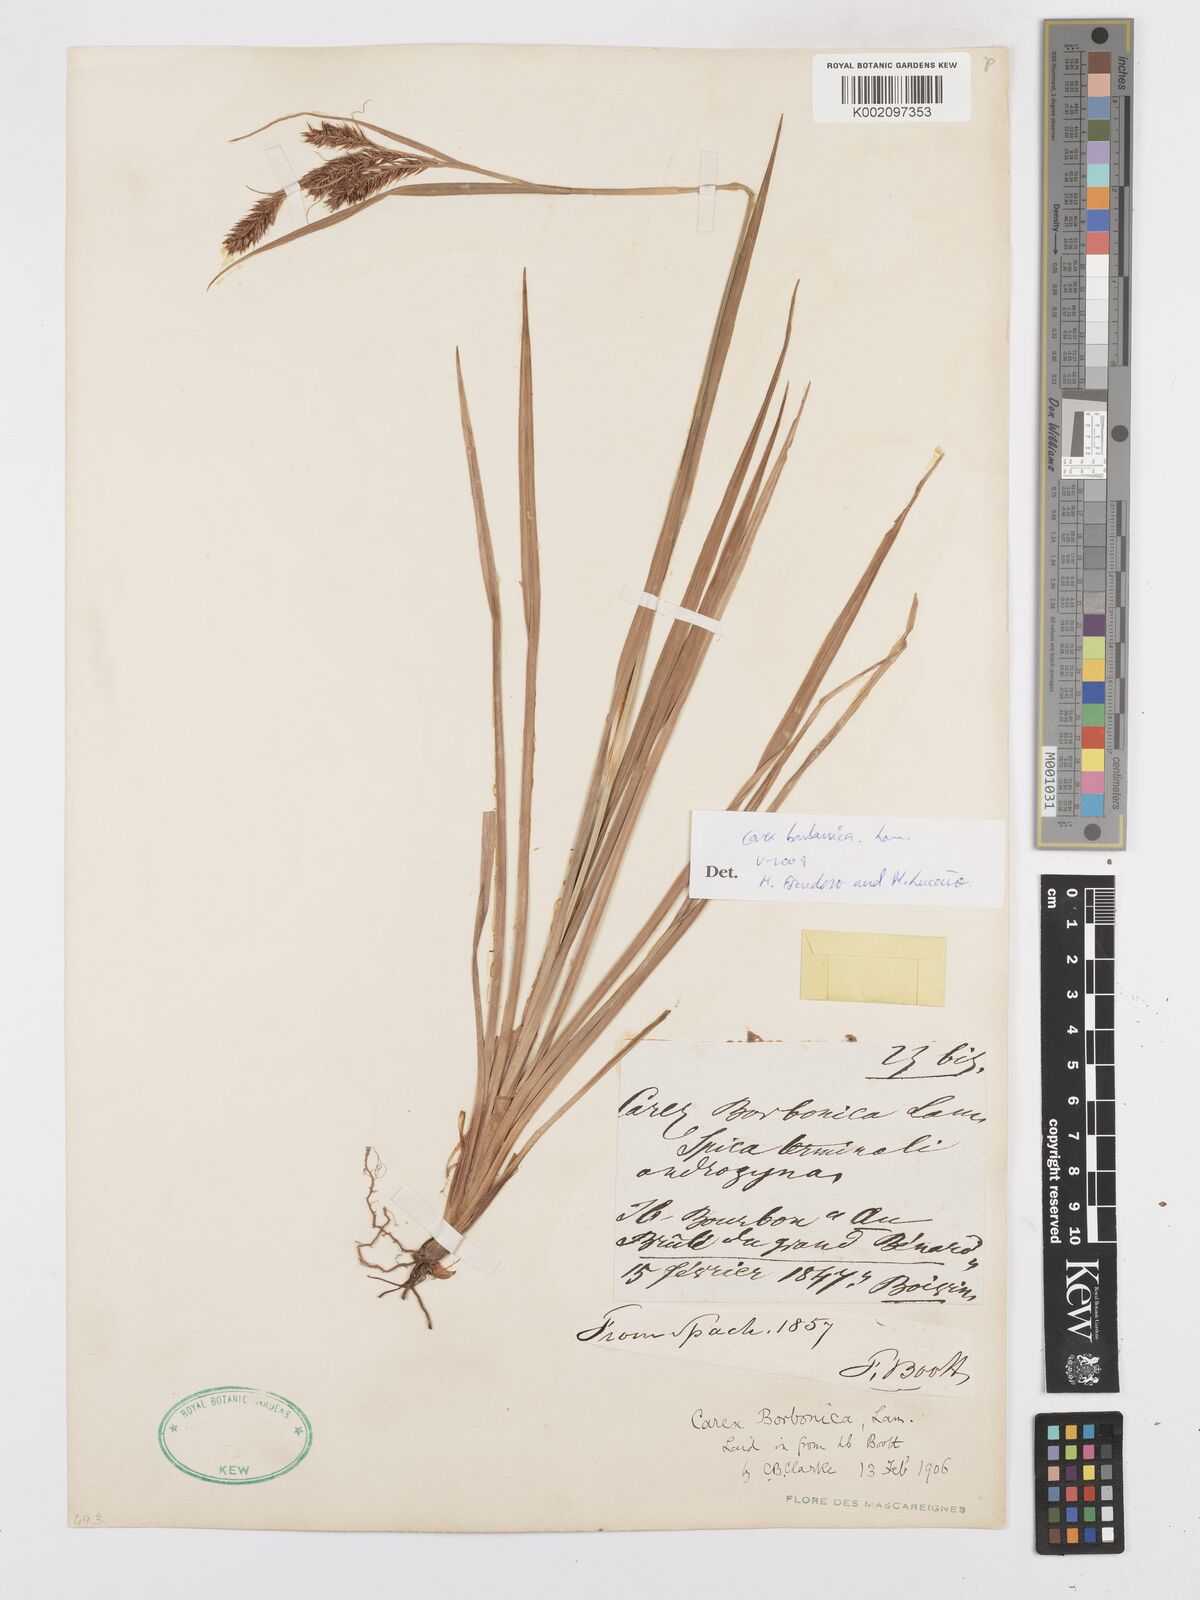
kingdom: Plantae
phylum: Tracheophyta
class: Liliopsida
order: Poales
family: Cyperaceae
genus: Carex
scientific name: Carex borbonica
